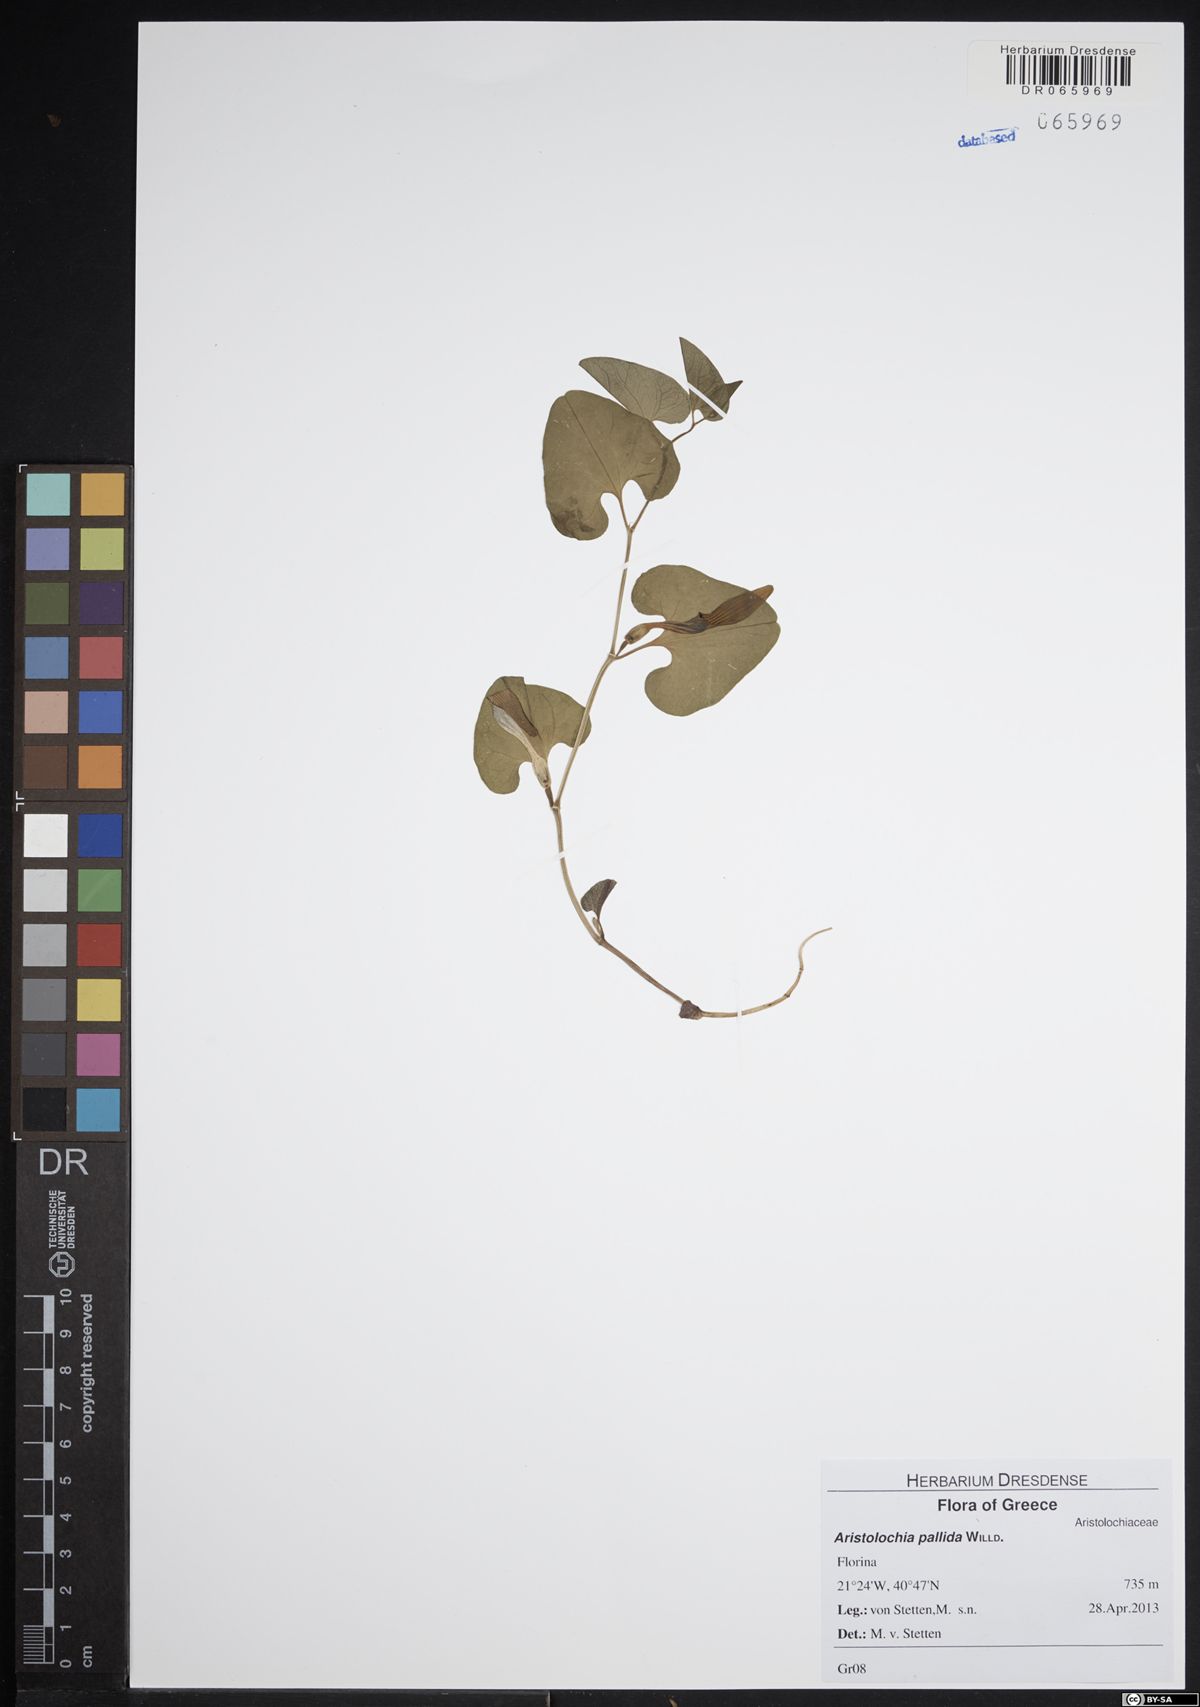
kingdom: Plantae
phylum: Tracheophyta
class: Magnoliopsida
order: Piperales
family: Aristolochiaceae
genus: Aristolochia
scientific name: Aristolochia pallida
